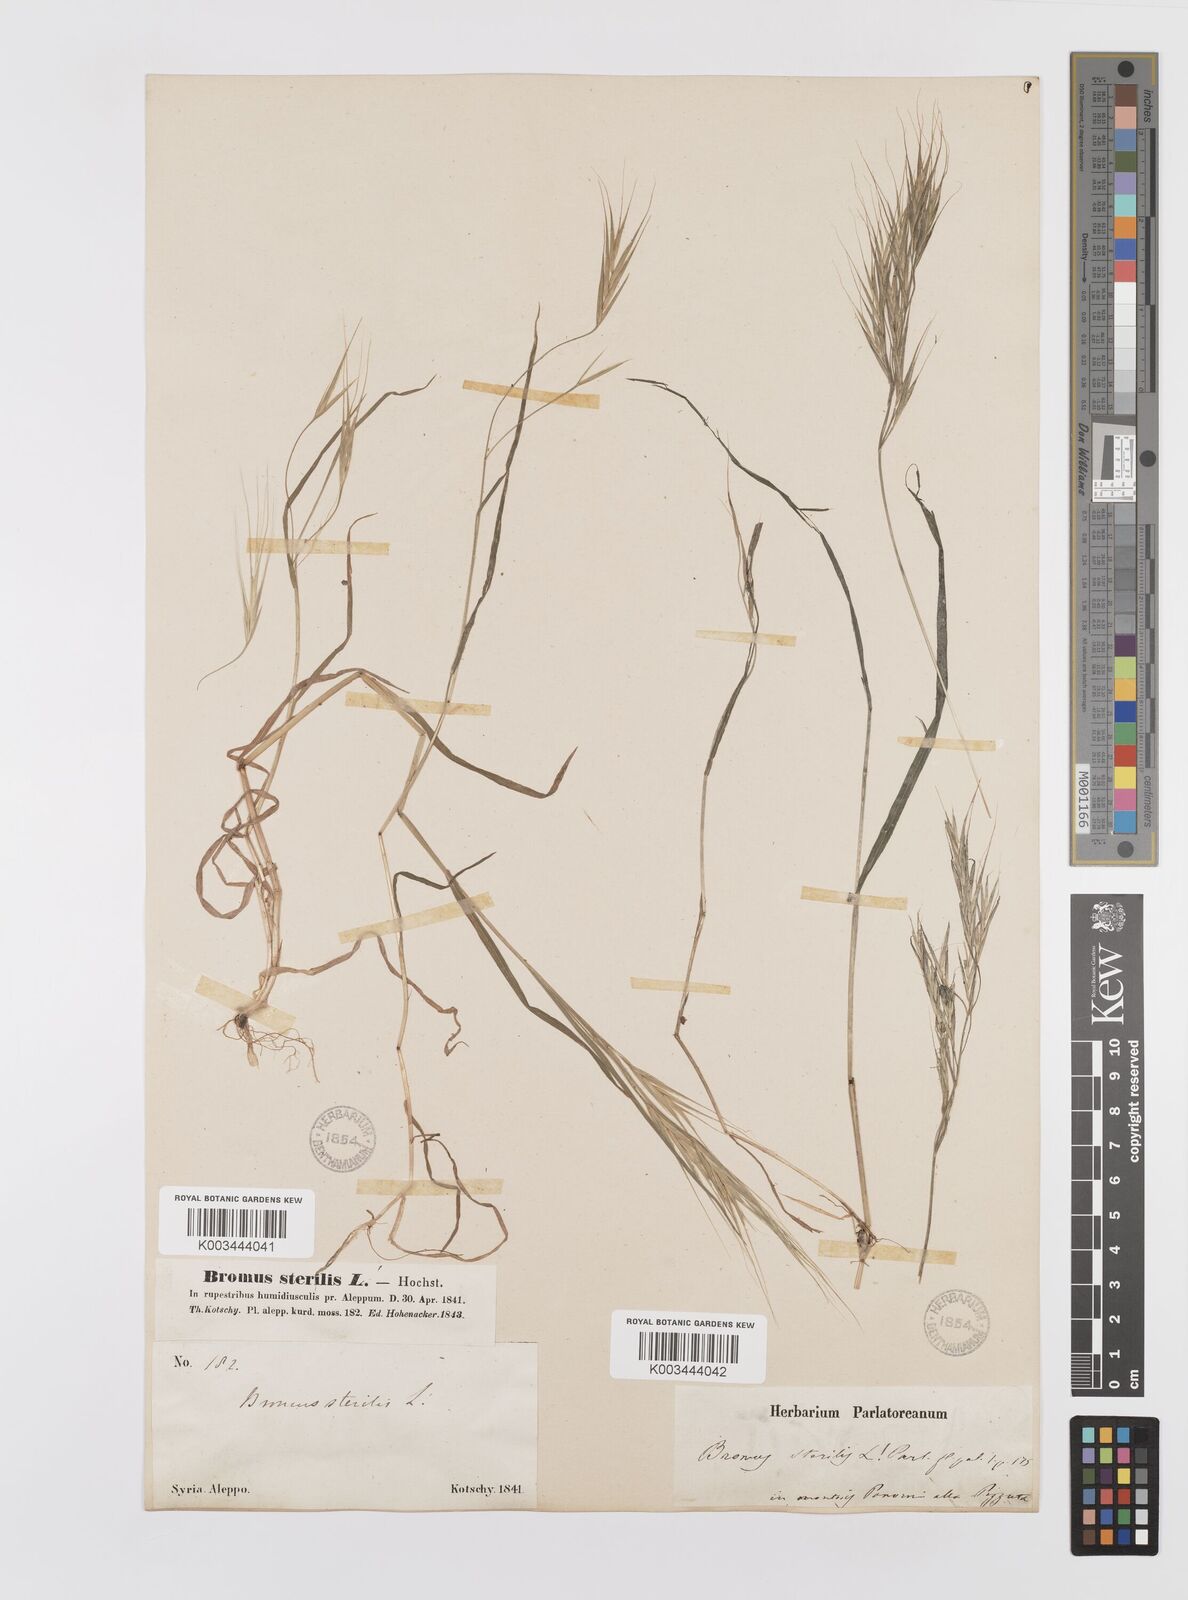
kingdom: Plantae
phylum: Tracheophyta
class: Liliopsida
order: Poales
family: Poaceae
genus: Bromus
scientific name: Bromus sterilis
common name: Poverty brome
